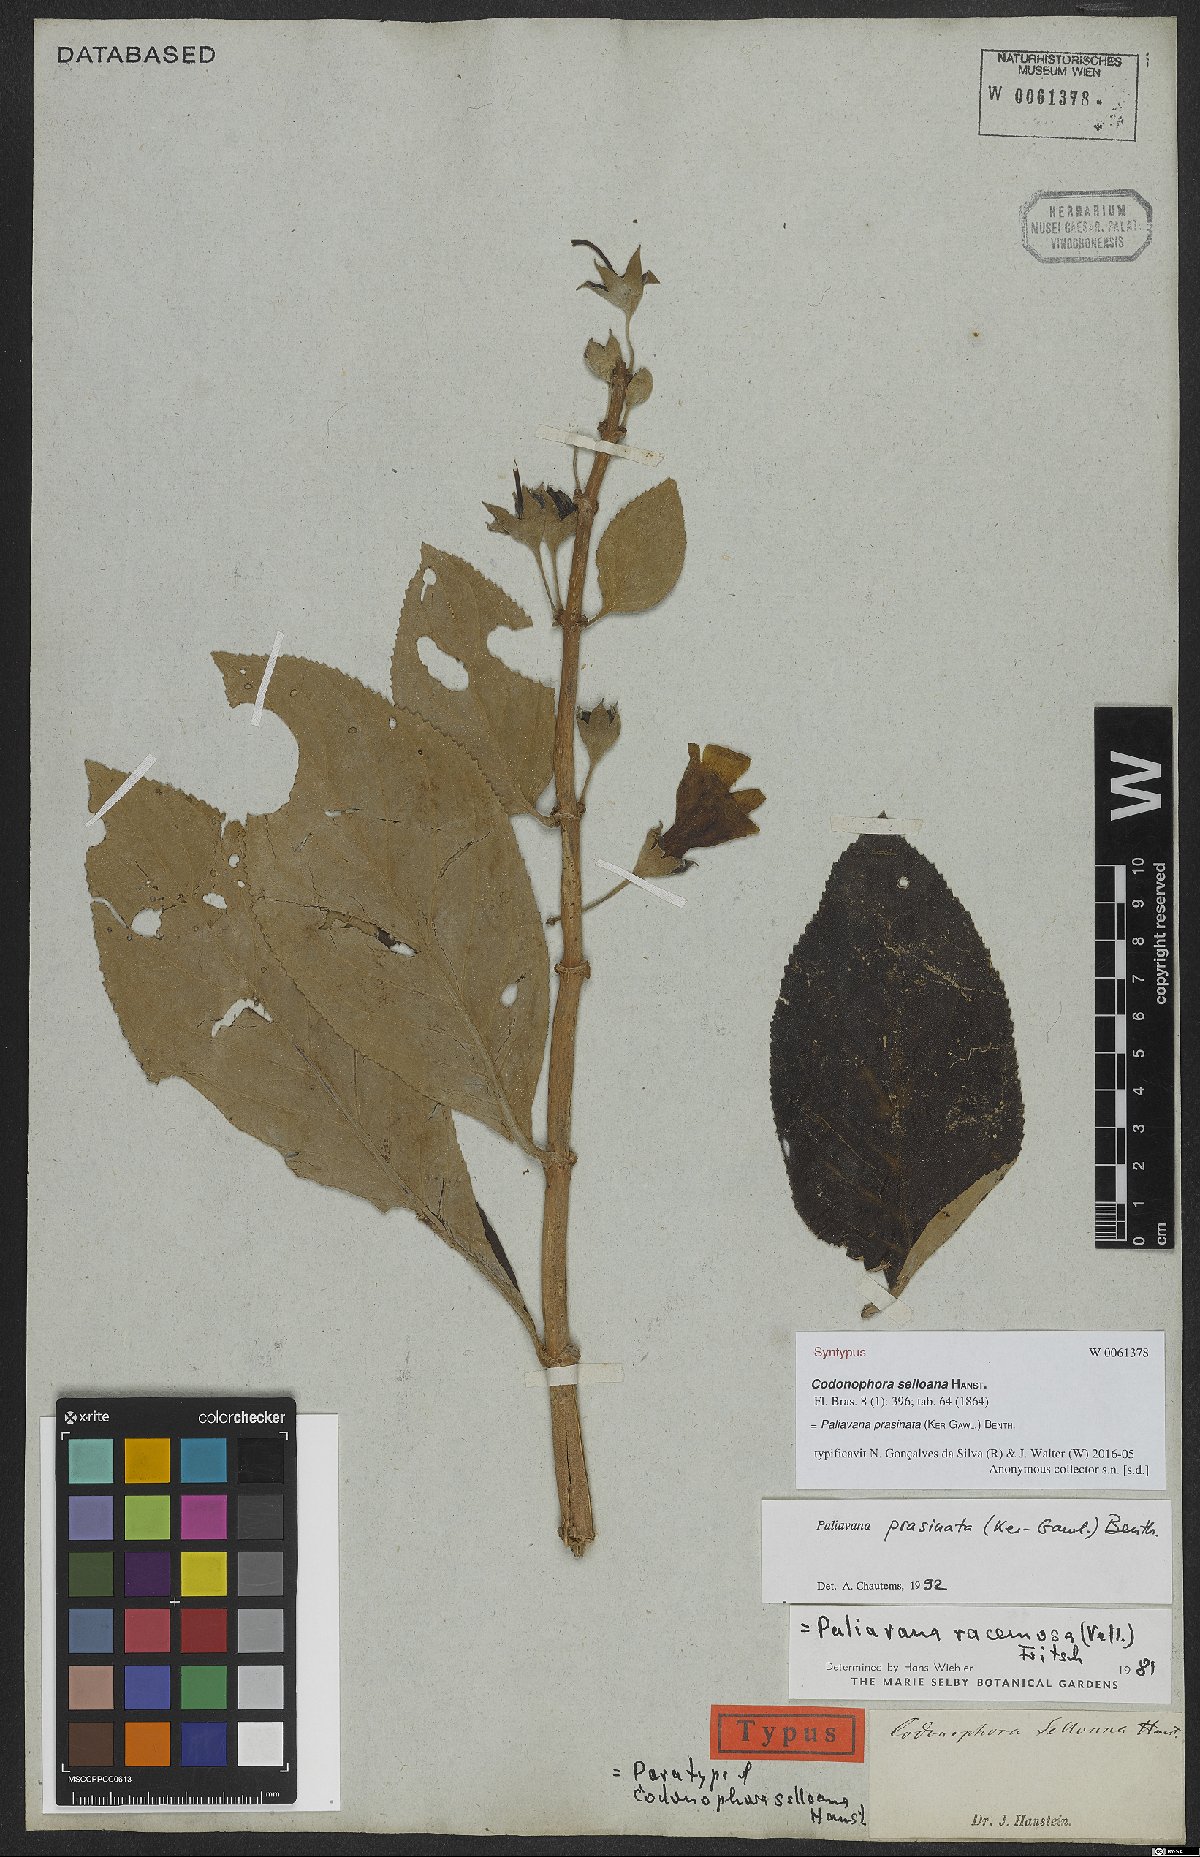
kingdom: Plantae
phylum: Tracheophyta
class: Magnoliopsida
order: Lamiales
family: Gesneriaceae
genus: Paliavana
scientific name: Paliavana prasinata
